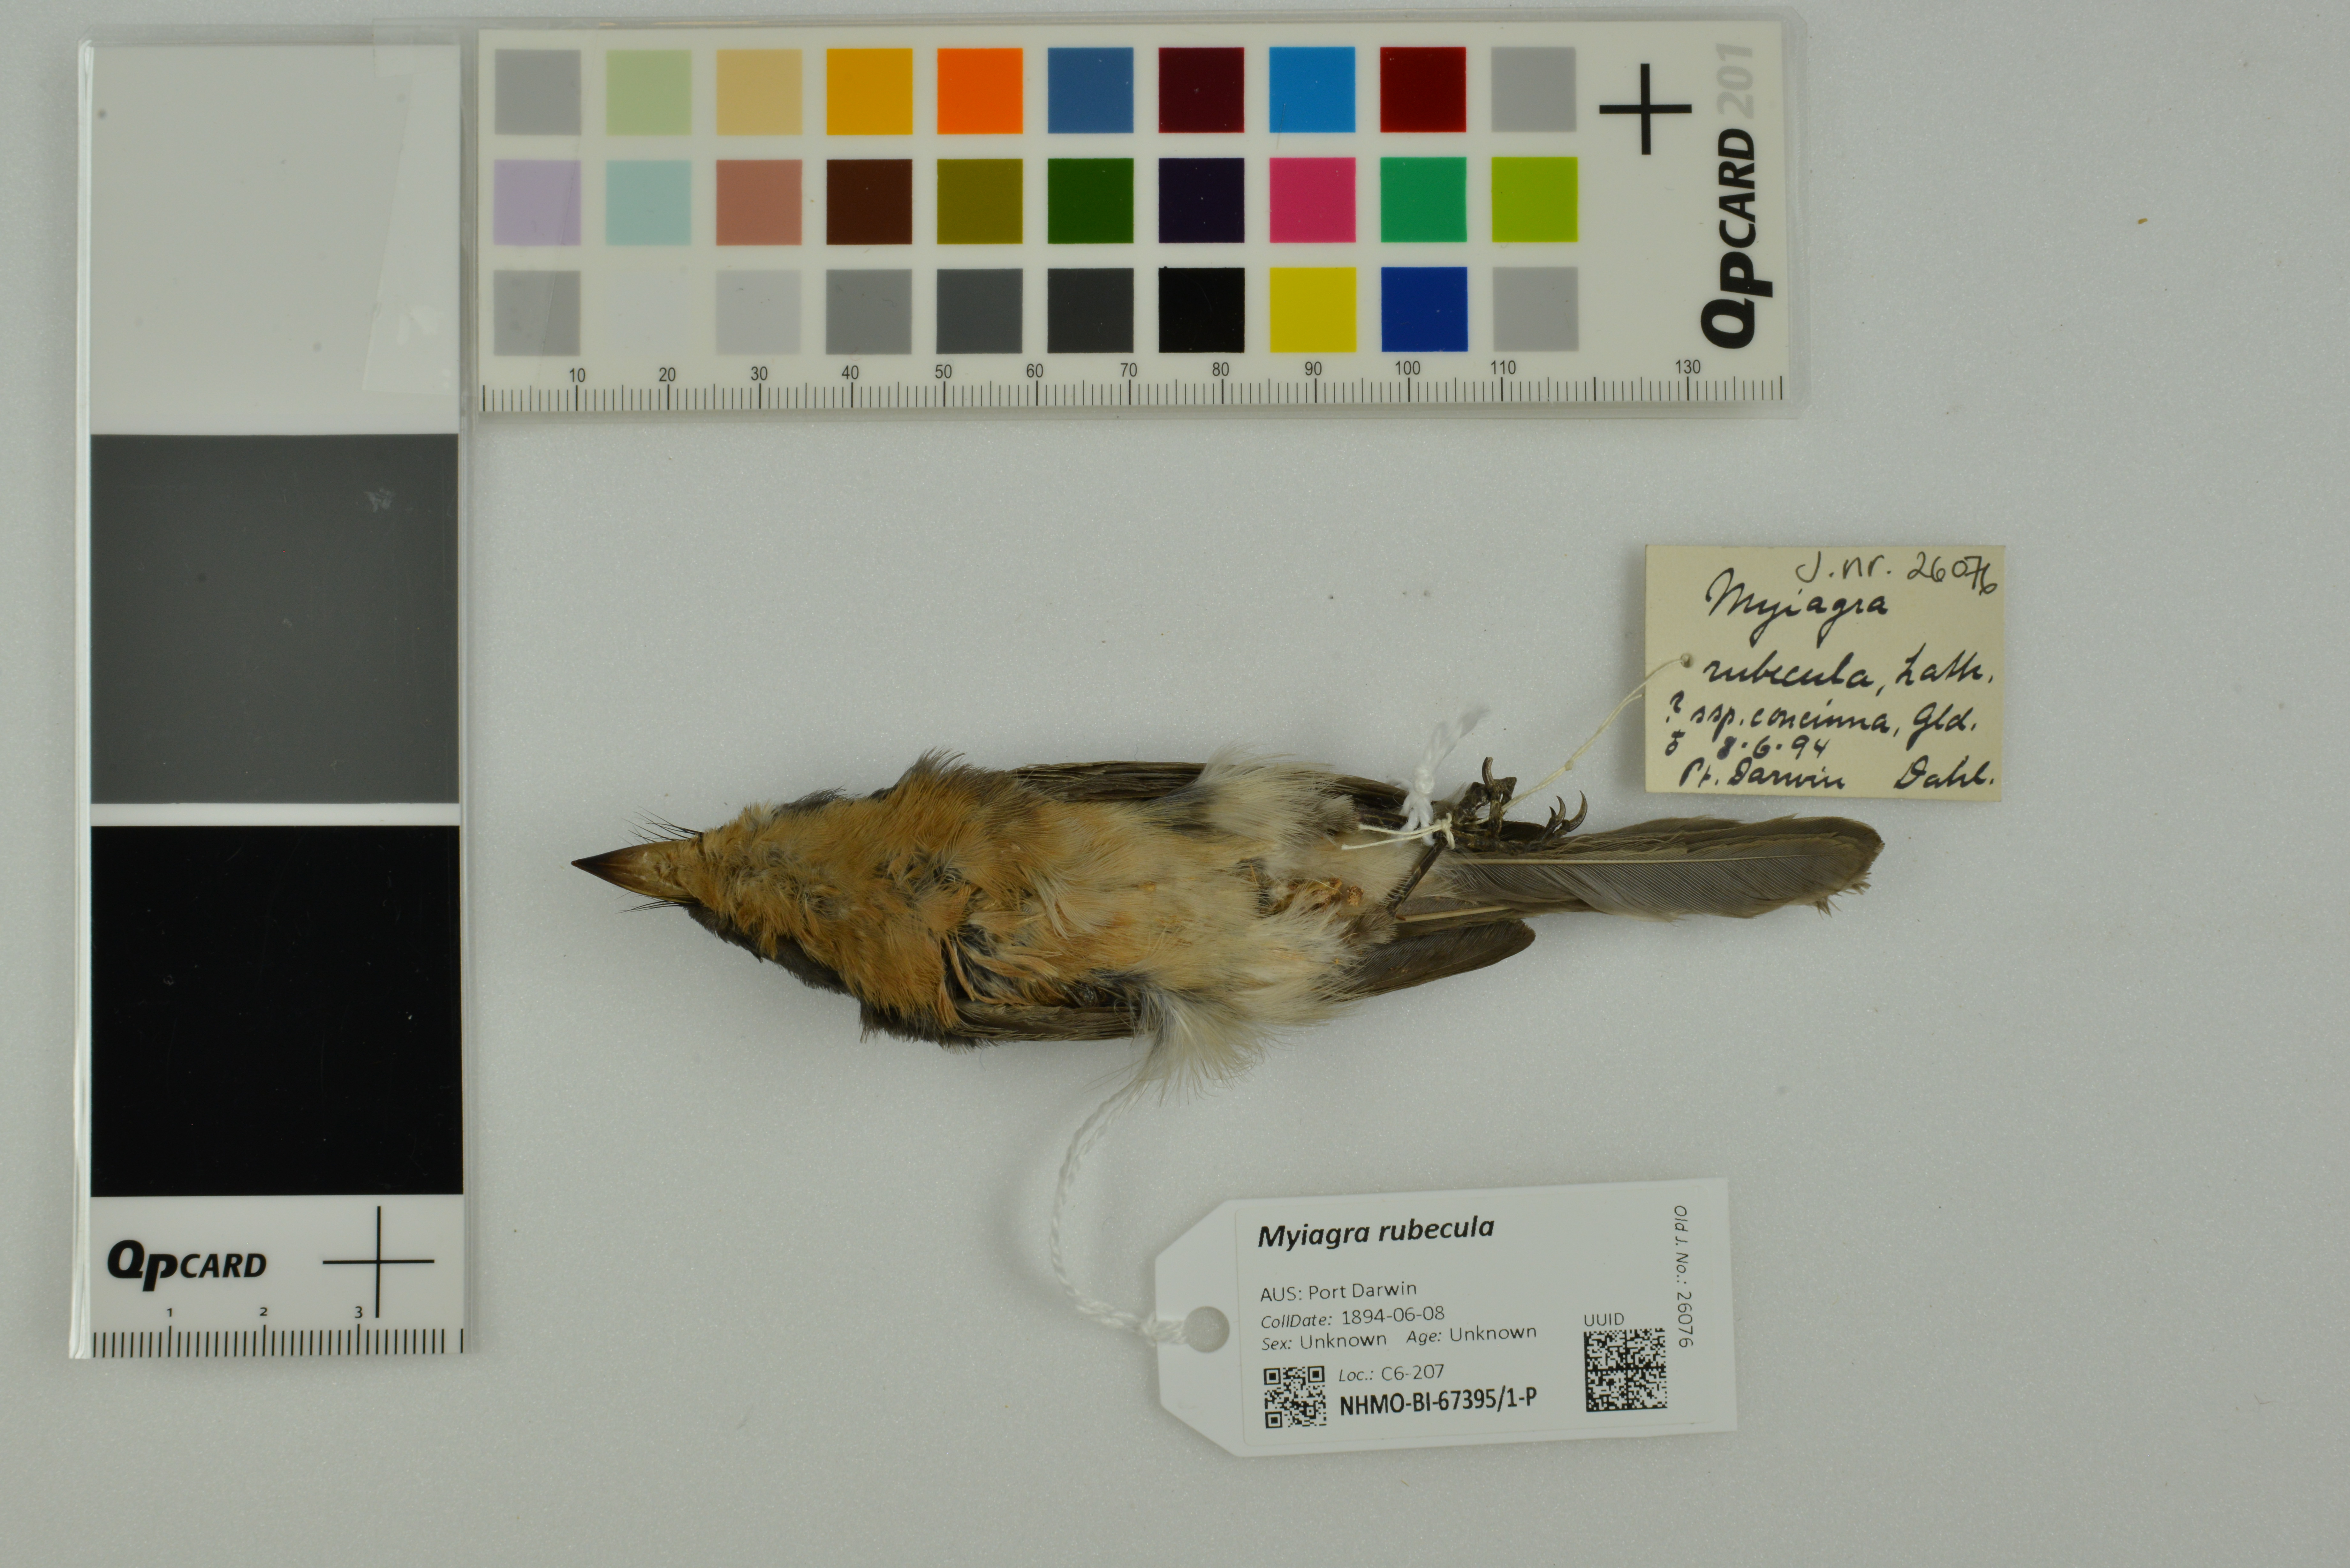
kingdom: Animalia
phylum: Chordata
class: Aves
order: Passeriformes
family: Monarchidae
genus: Myiagra
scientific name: Myiagra rubecula
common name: Leaden flycatcher
